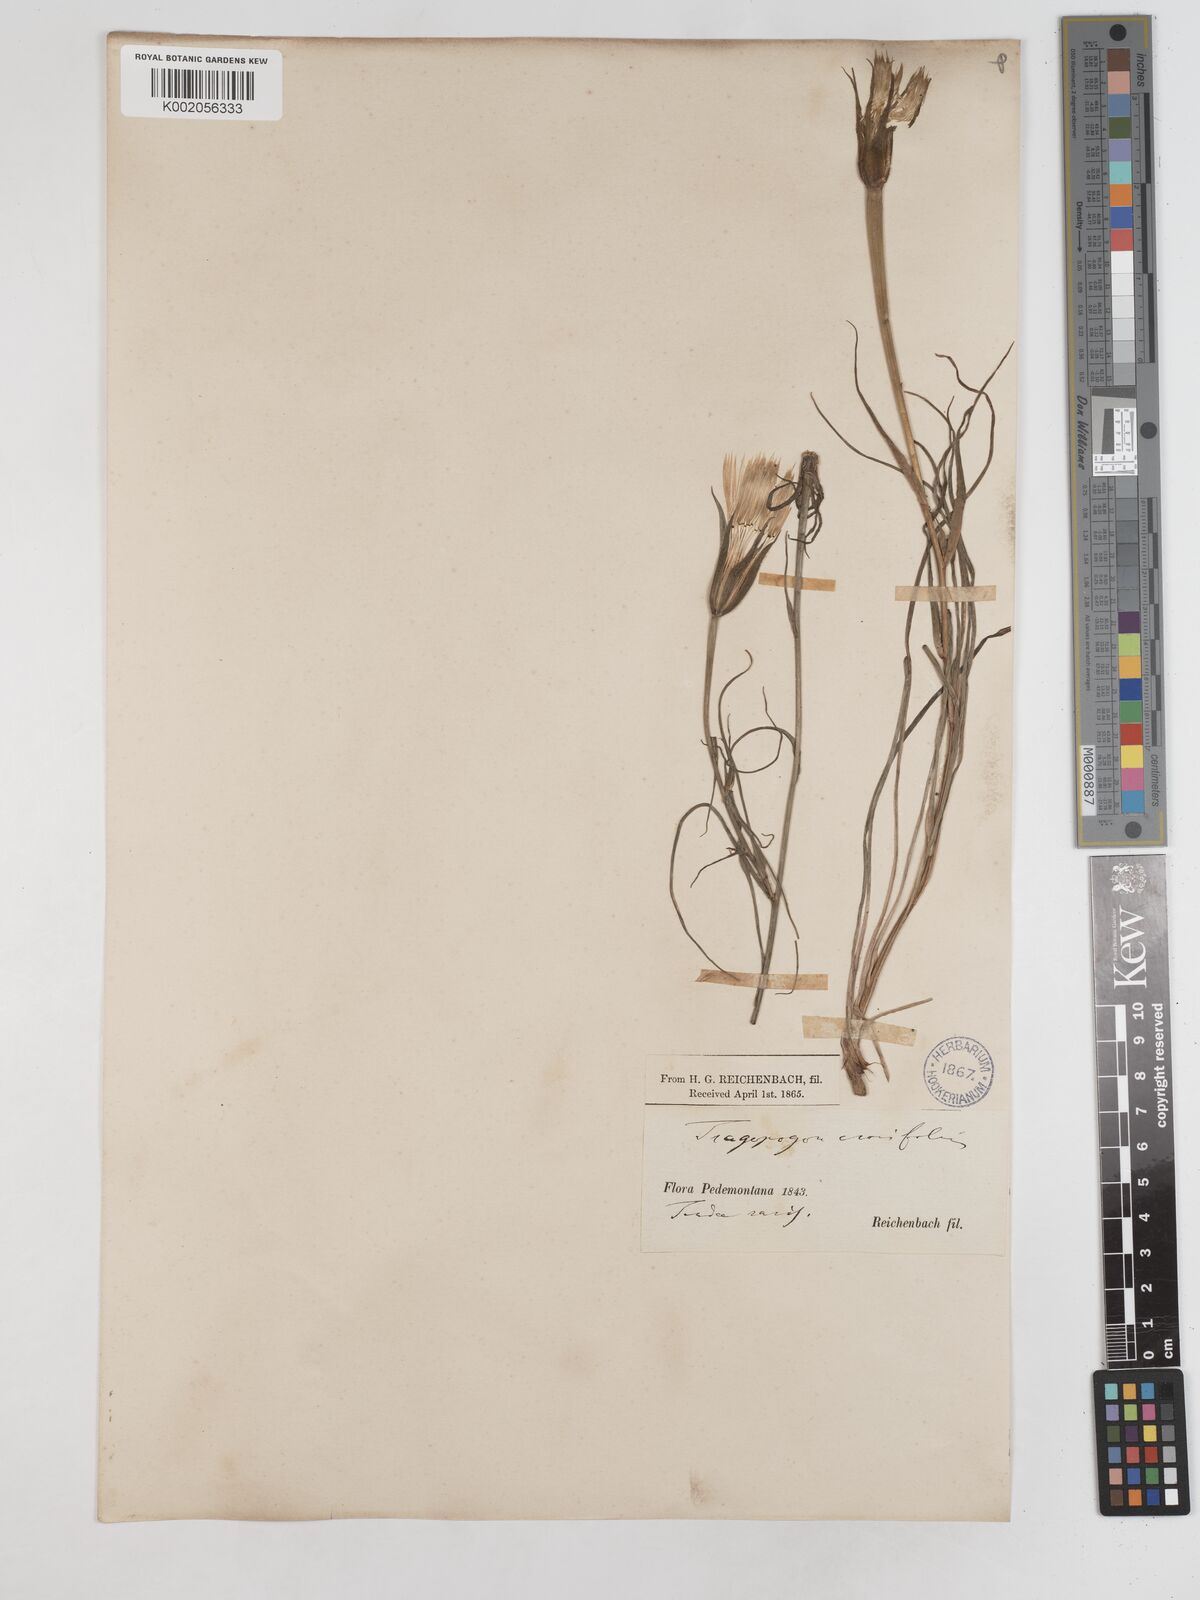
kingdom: Plantae
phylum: Tracheophyta
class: Magnoliopsida
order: Asterales
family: Asteraceae
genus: Tragopogon
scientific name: Tragopogon crocifolius
